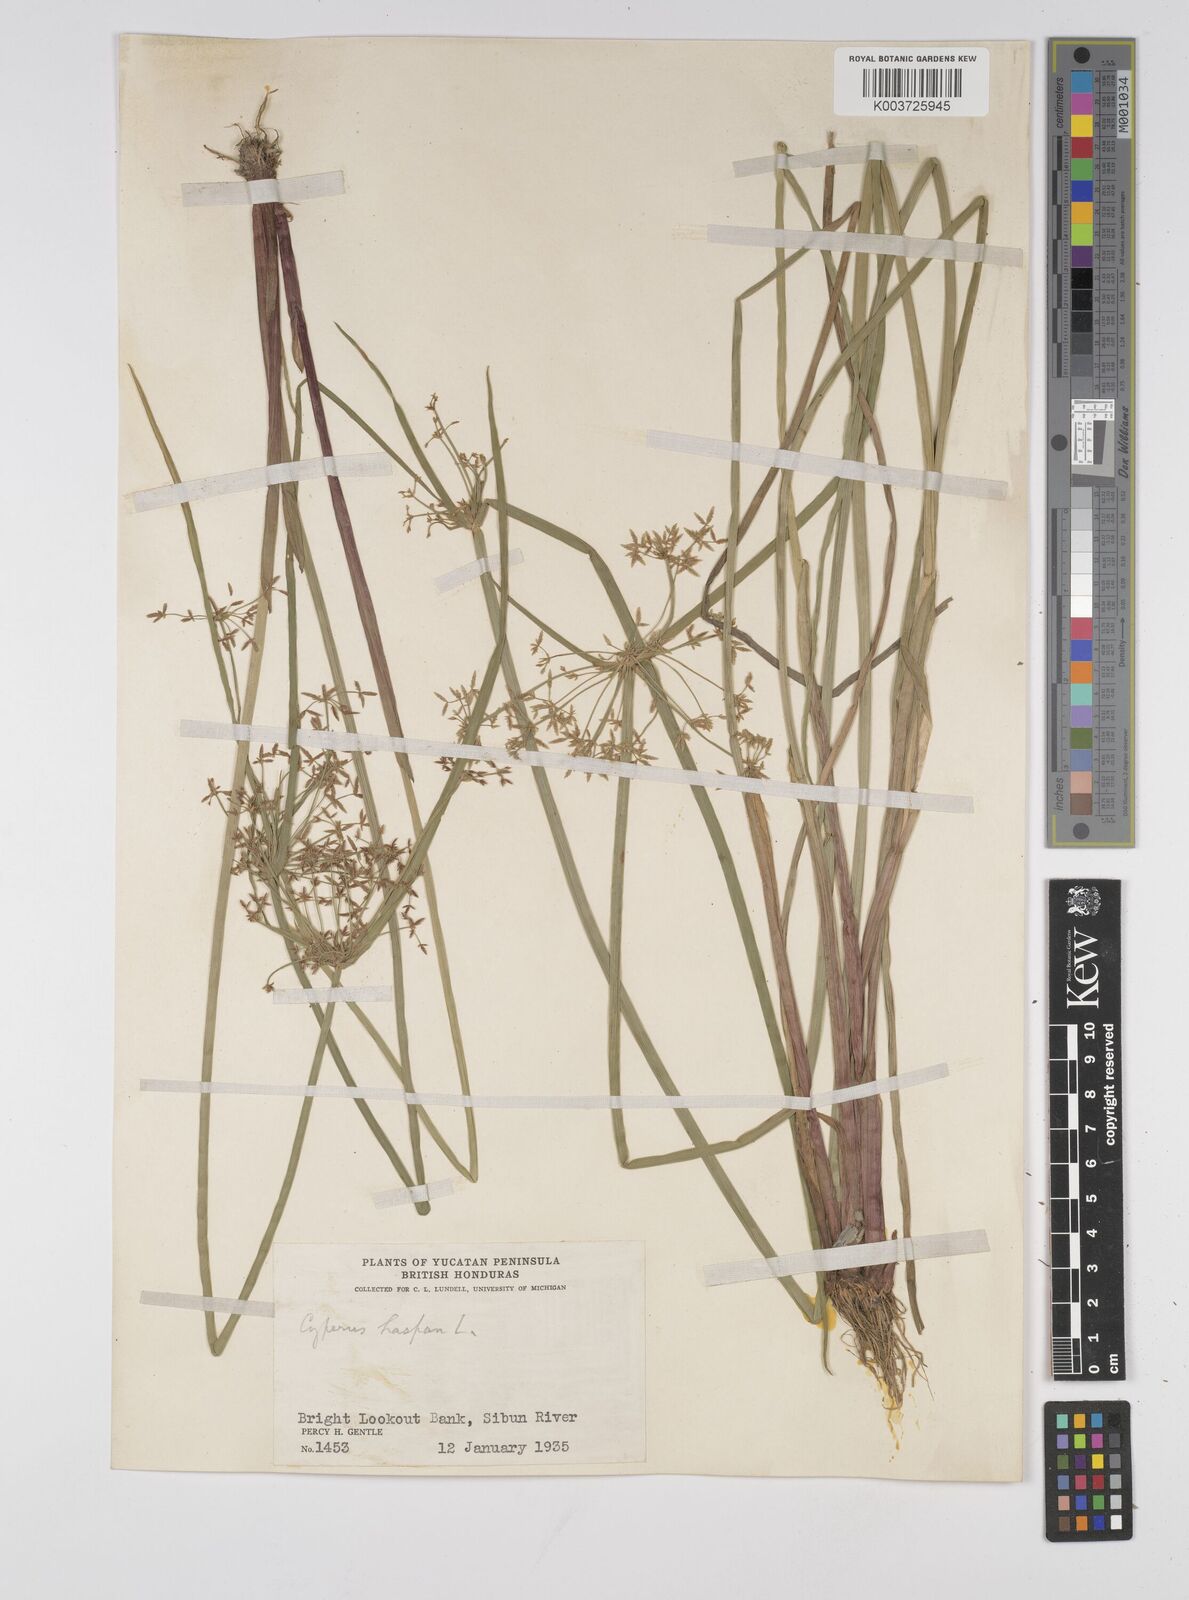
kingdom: Plantae
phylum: Tracheophyta
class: Liliopsida
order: Poales
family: Cyperaceae
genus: Cyperus
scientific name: Cyperus haspan
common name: Haspan flatsedge
